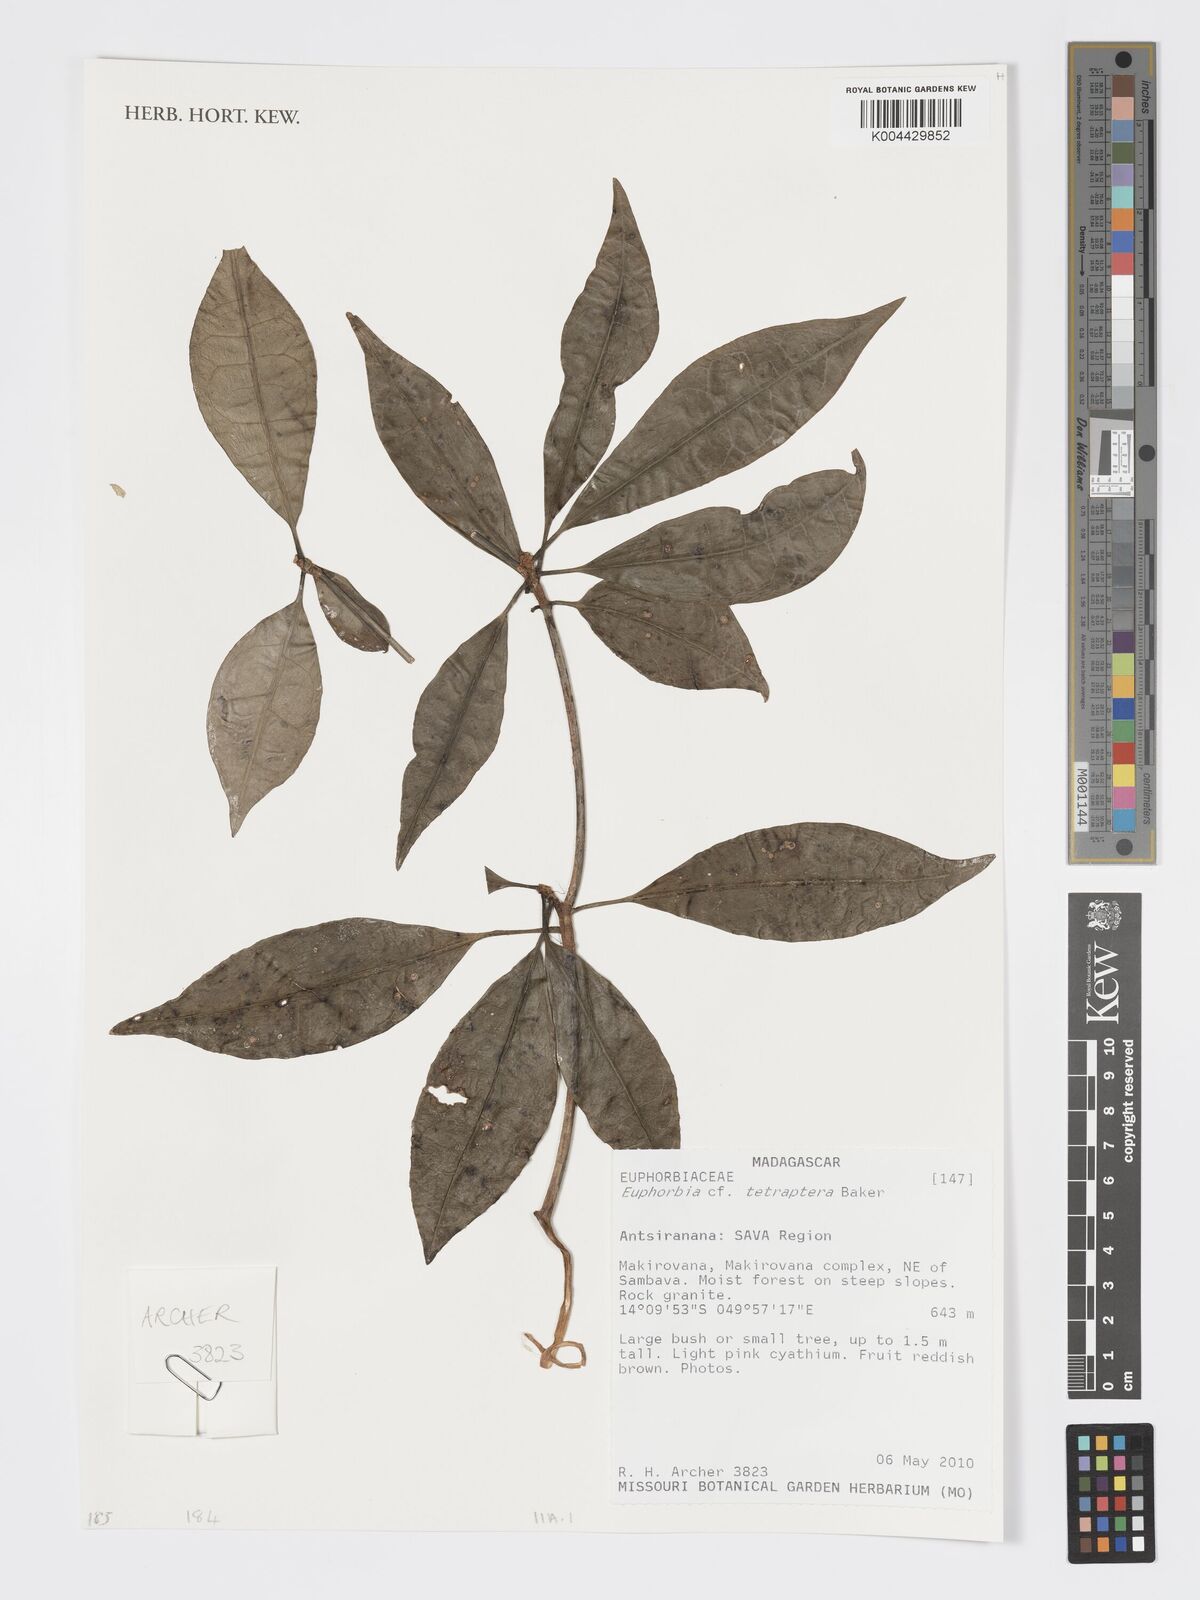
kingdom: Plantae
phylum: Tracheophyta
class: Magnoliopsida
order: Malpighiales
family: Euphorbiaceae
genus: Euphorbia
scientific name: Euphorbia tetraptera
